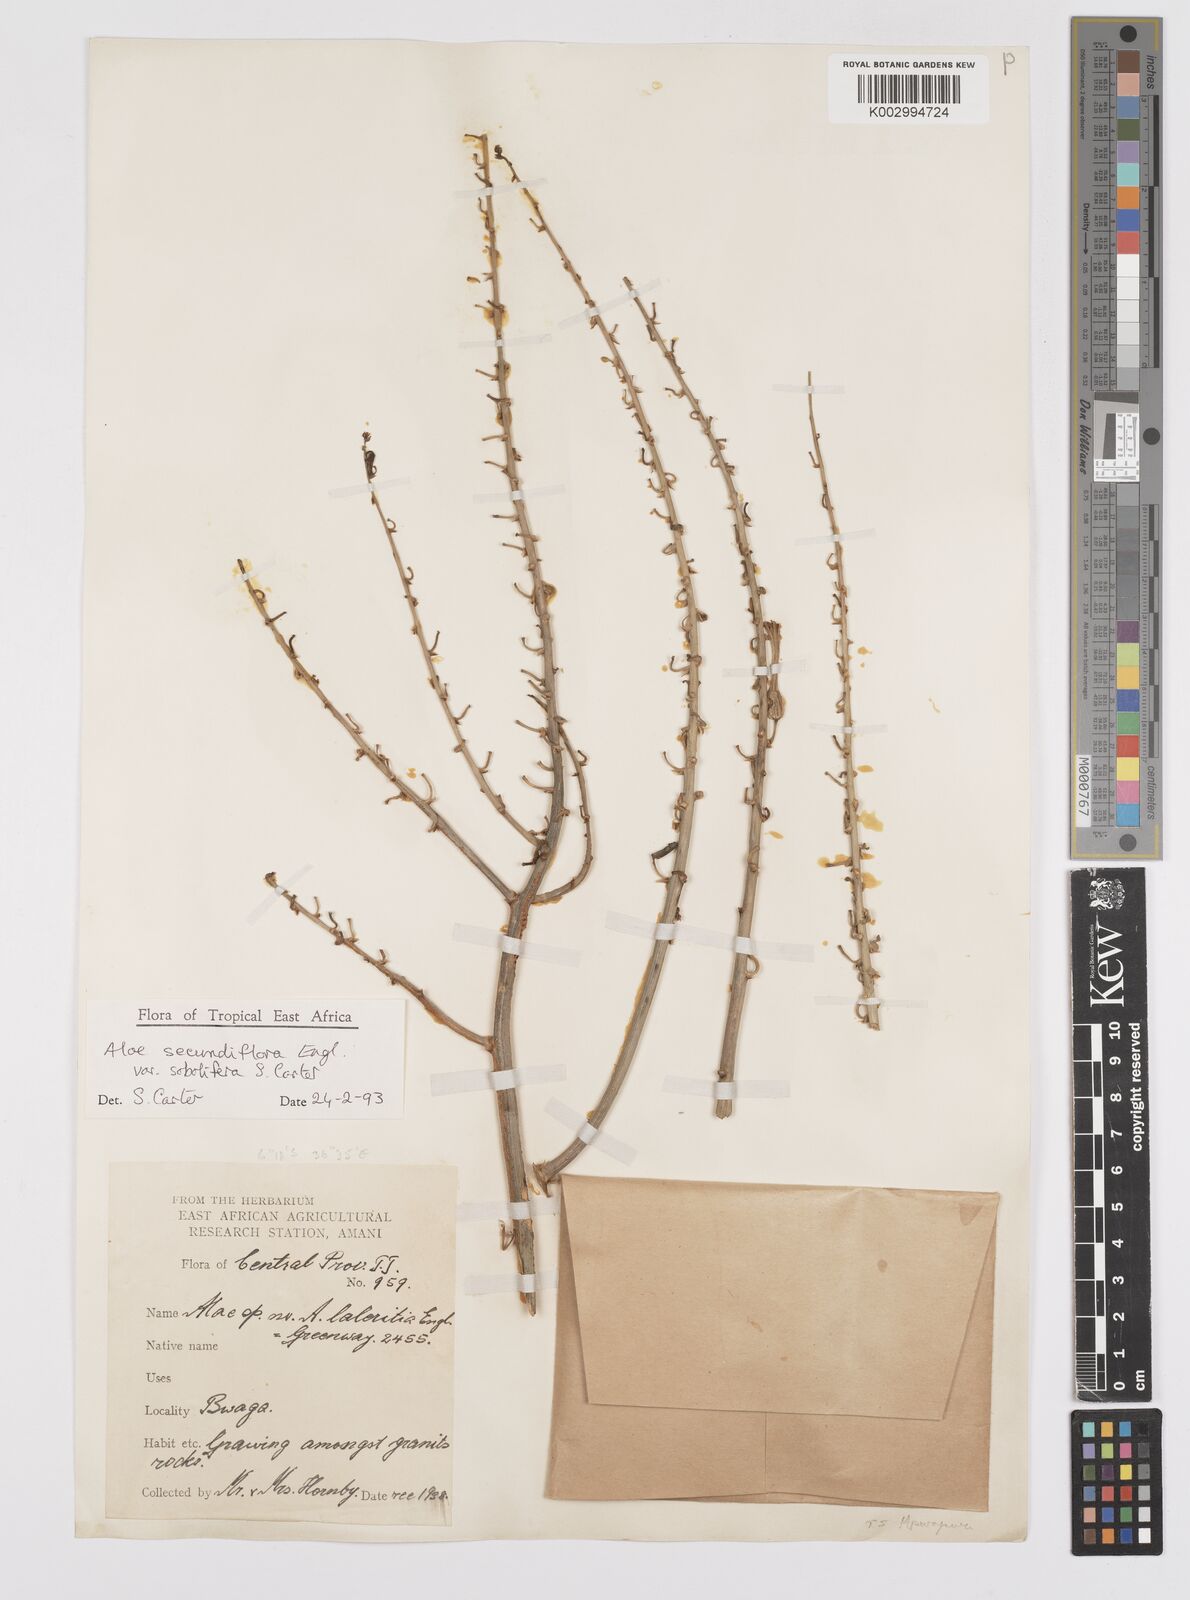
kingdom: Plantae
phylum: Tracheophyta
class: Liliopsida
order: Asparagales
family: Asphodelaceae
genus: Aloe
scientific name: Aloe sobolifera
